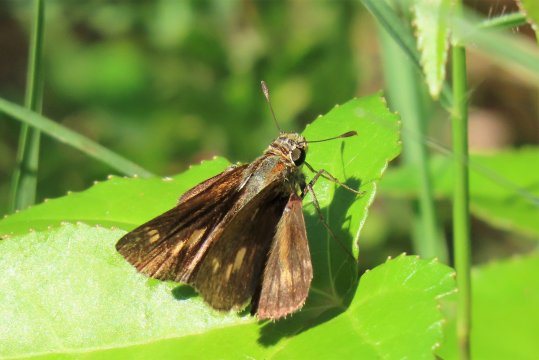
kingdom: Animalia
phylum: Arthropoda
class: Insecta
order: Lepidoptera
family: Hesperiidae
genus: Wallengrenia
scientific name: Wallengrenia otho
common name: Southern Broken-Dash
